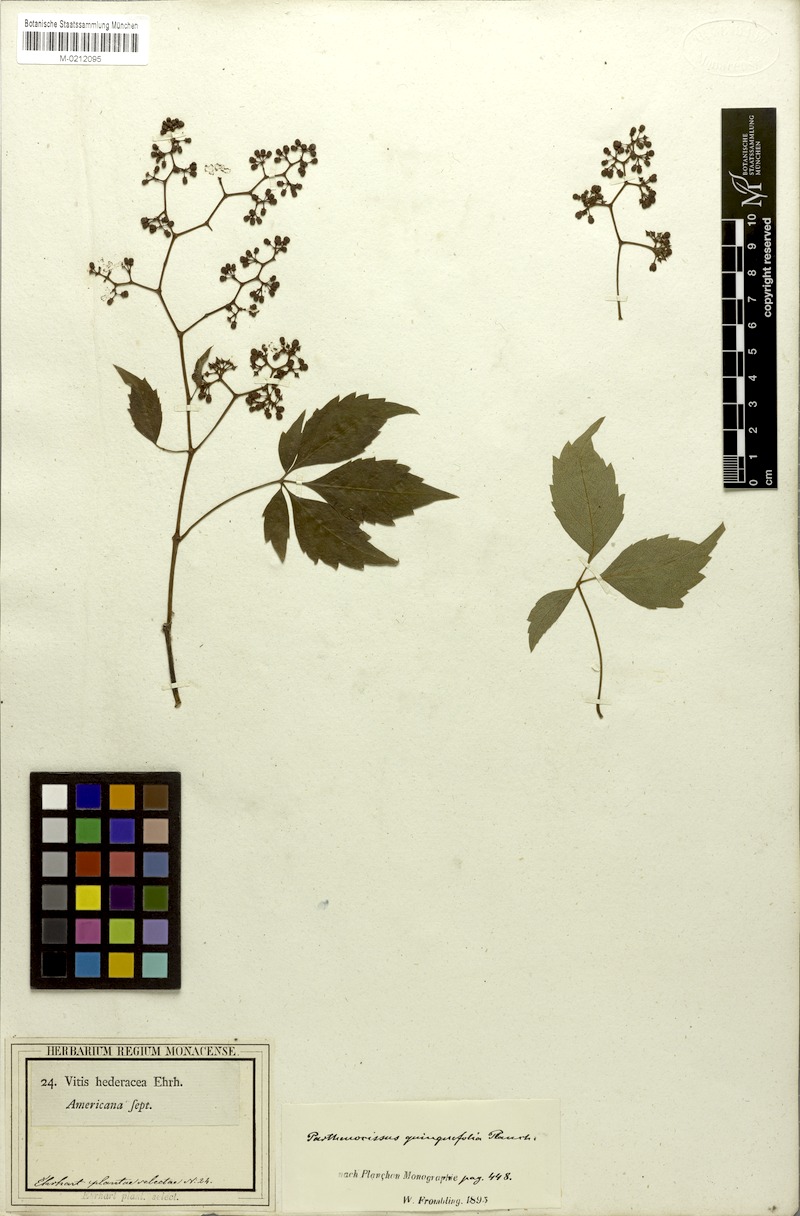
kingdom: Plantae
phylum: Tracheophyta
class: Magnoliopsida
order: Vitales
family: Vitaceae
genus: Parthenocissus
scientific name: Parthenocissus quinquefolia
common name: Virginia-creeper
